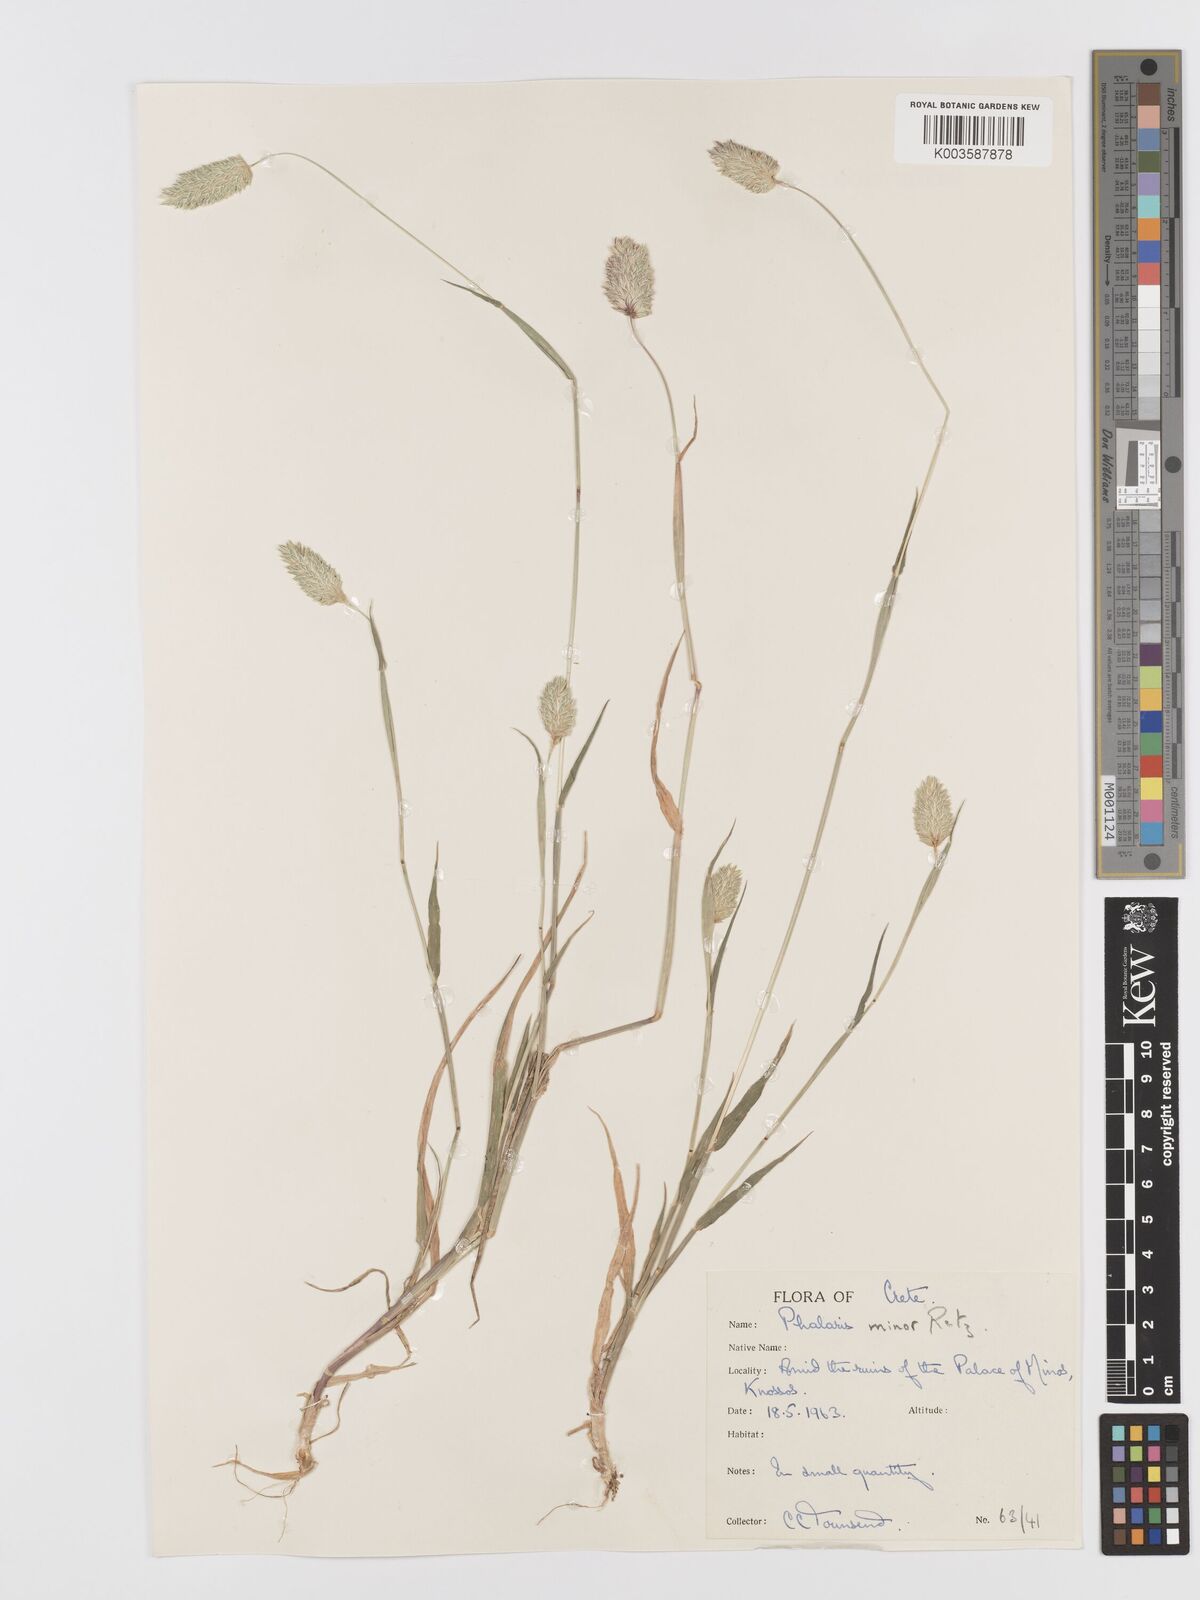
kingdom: Plantae
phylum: Tracheophyta
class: Liliopsida
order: Poales
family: Poaceae
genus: Phalaris
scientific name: Phalaris minor
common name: Littleseed canarygrass
